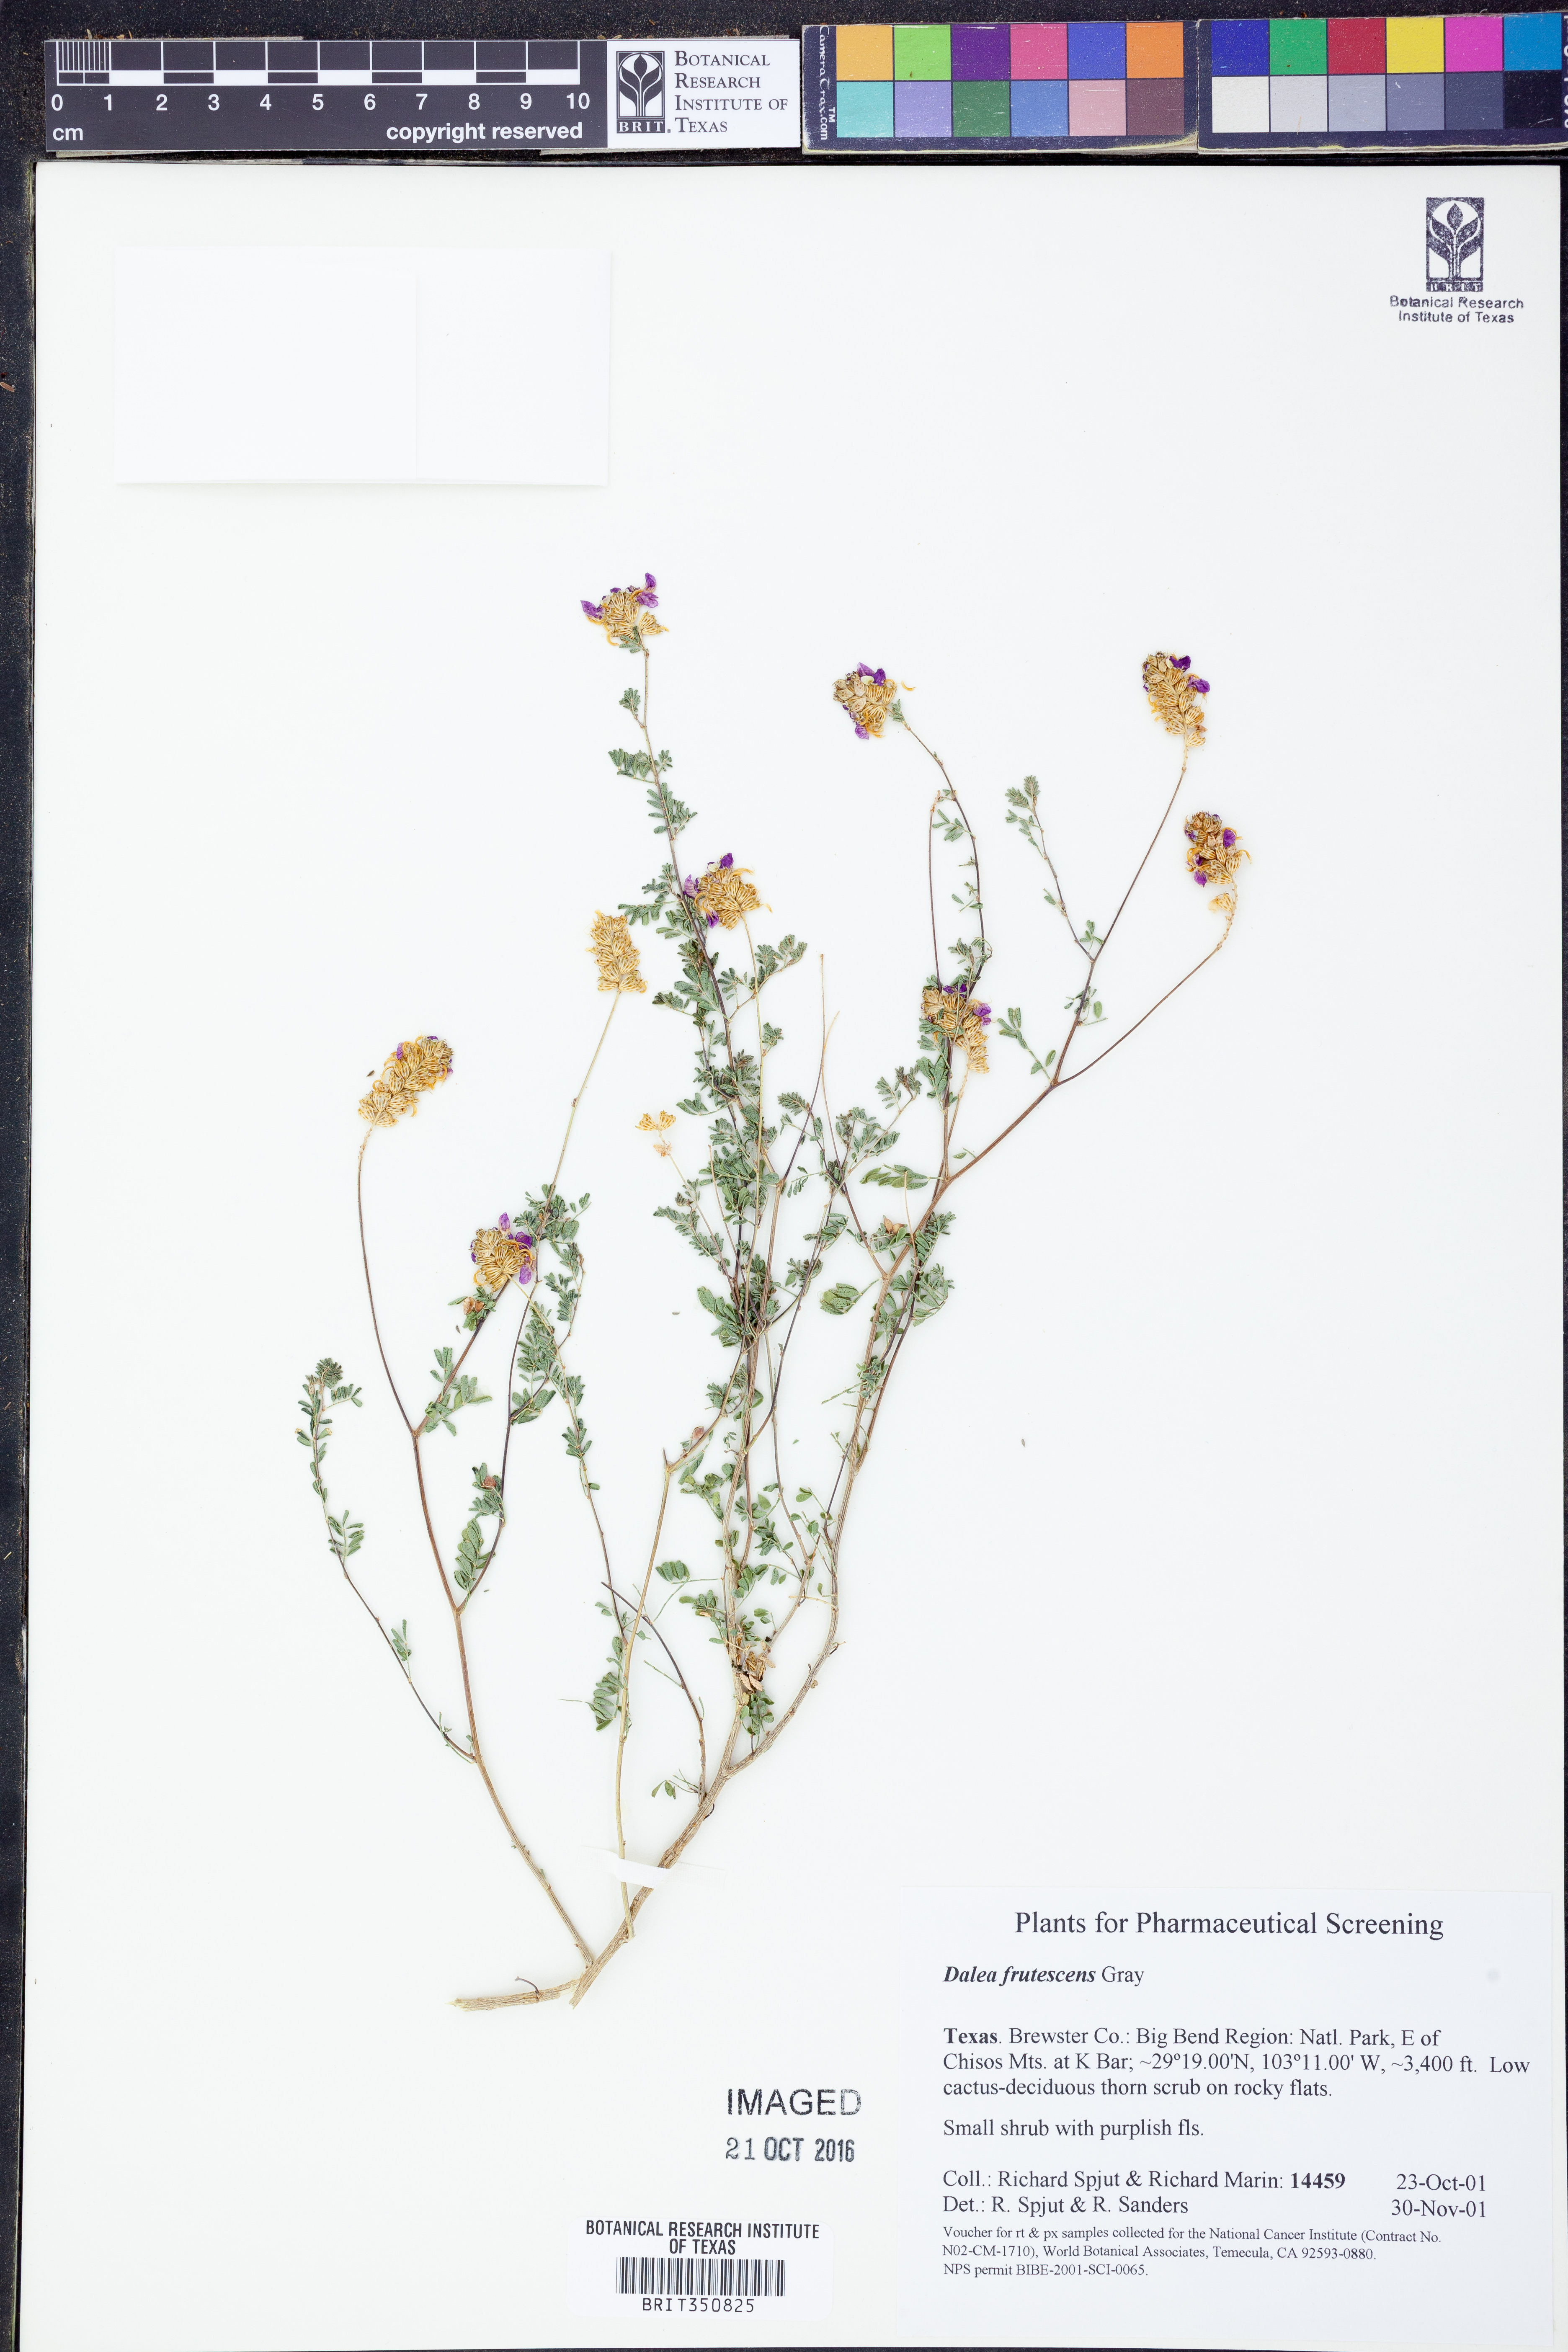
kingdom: Plantae
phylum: Tracheophyta
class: Magnoliopsida
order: Fabales
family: Fabaceae
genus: Dalea
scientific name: Dalea frutescens
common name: Black dalea
